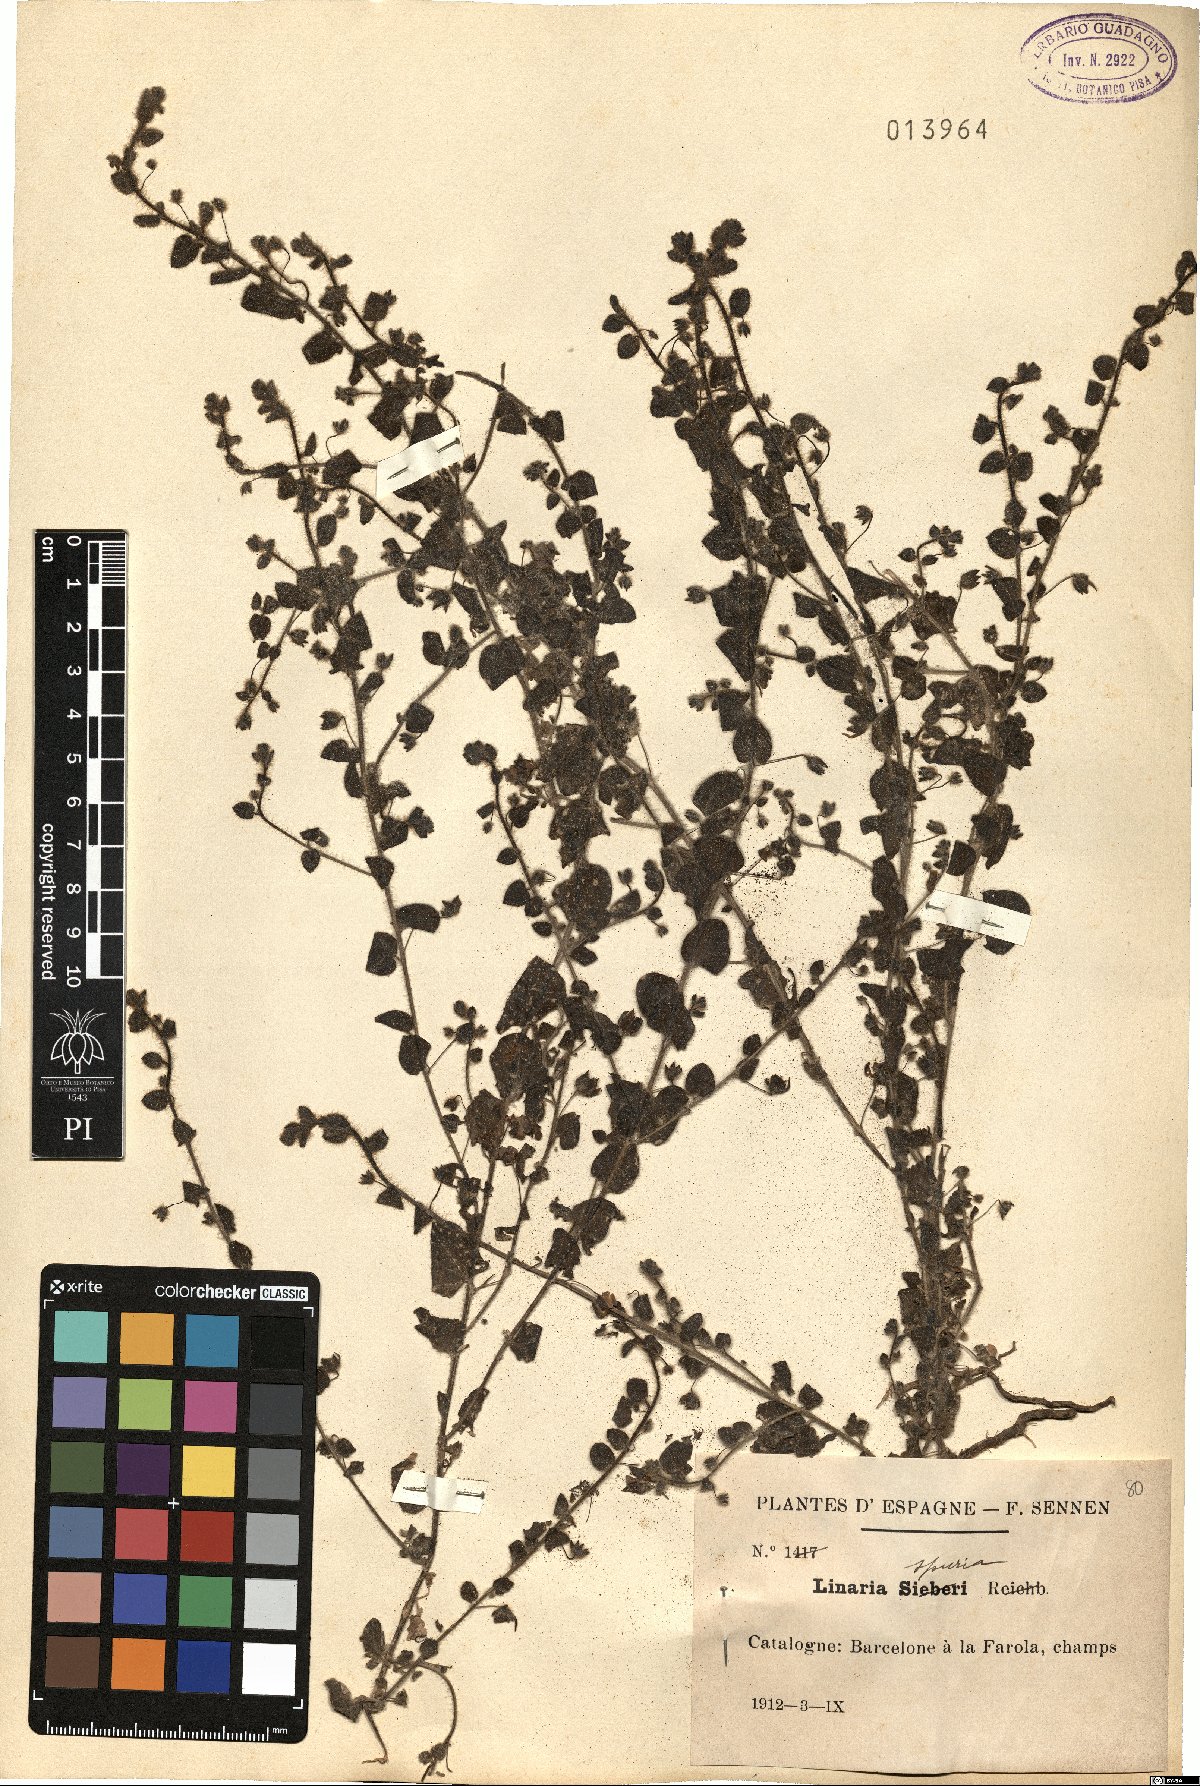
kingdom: Plantae
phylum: Tracheophyta
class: Magnoliopsida
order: Lamiales
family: Plantaginaceae
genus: Kickxia
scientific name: Kickxia spuria
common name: Round-leaved fluellen
